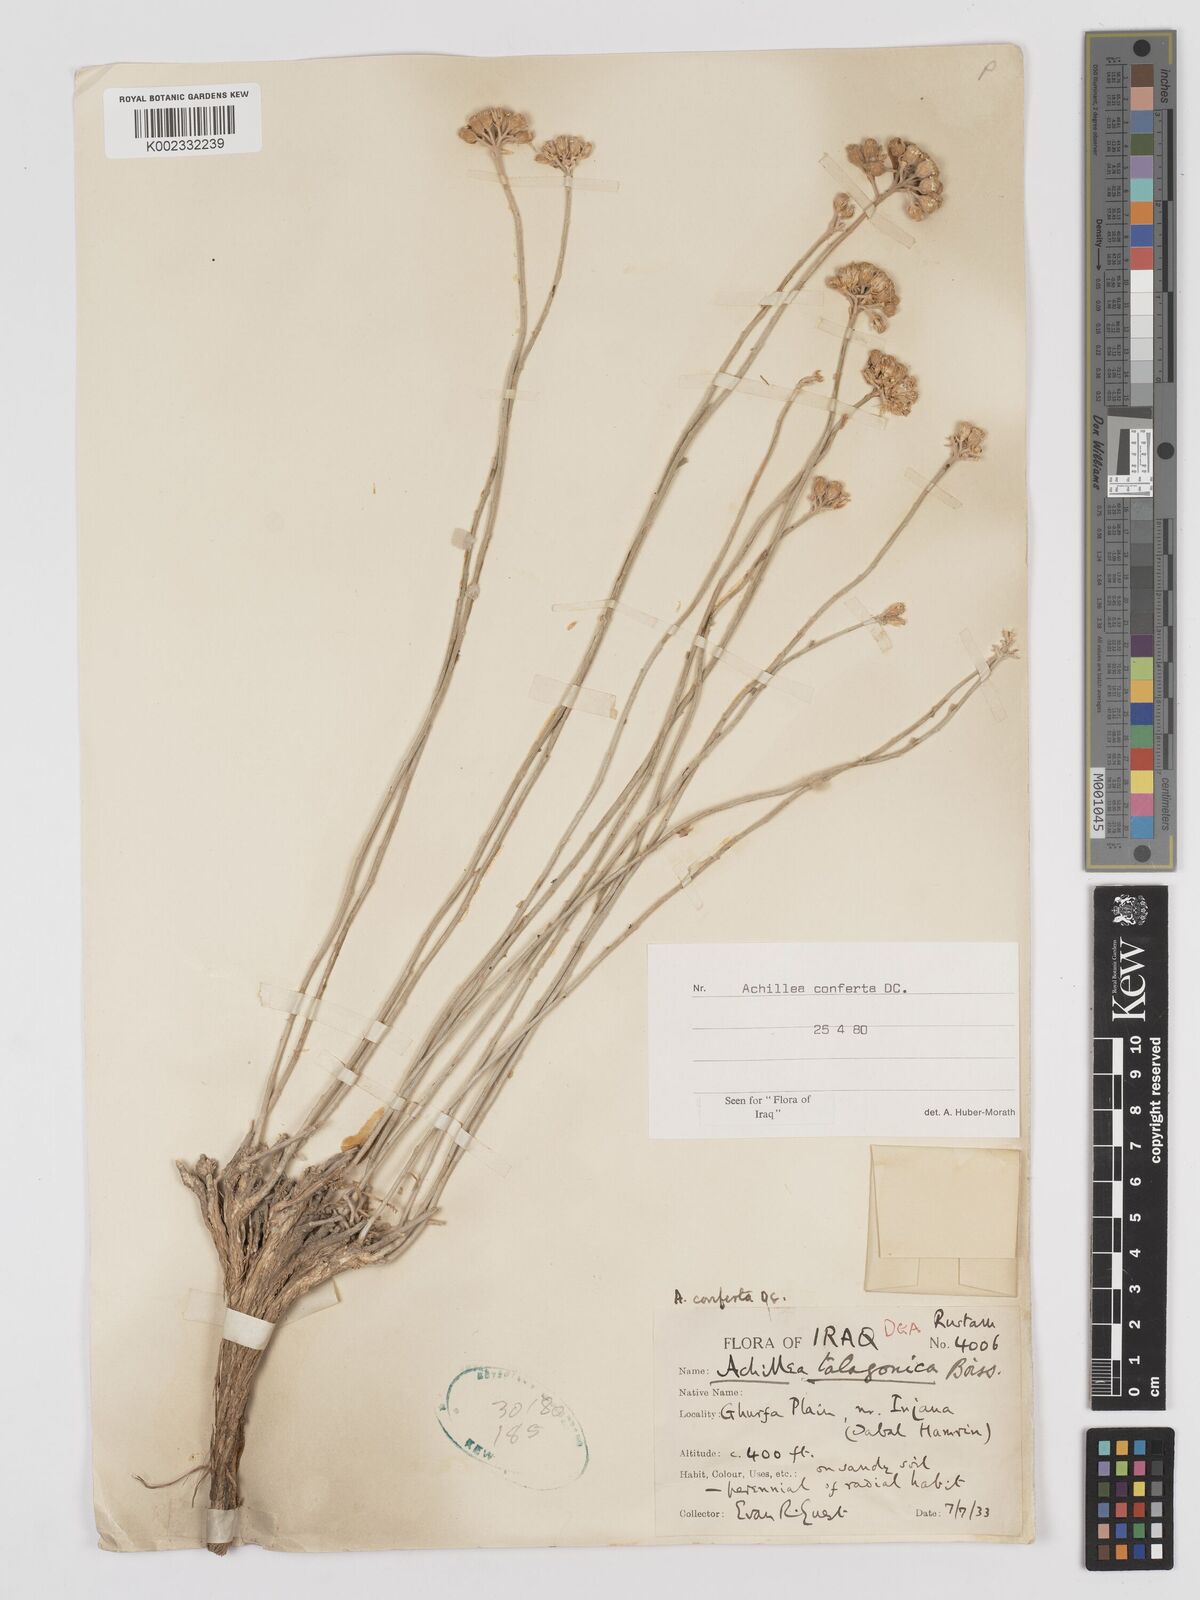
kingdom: Plantae
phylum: Tracheophyta
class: Magnoliopsida
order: Asterales
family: Asteraceae
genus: Achillea
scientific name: Achillea conferta
